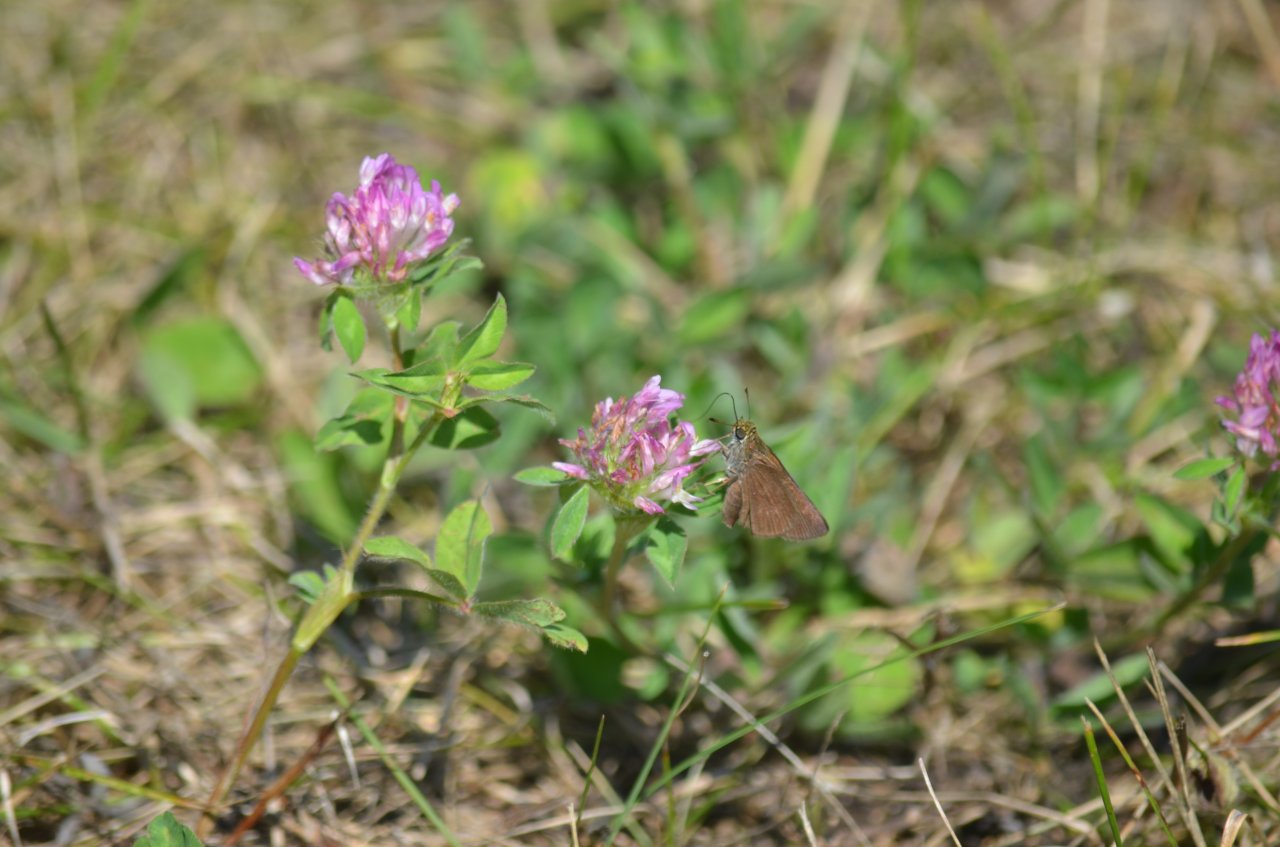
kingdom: Animalia
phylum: Arthropoda
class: Insecta
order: Lepidoptera
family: Hesperiidae
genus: Euphyes
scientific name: Euphyes vestris
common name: Dun Skipper
